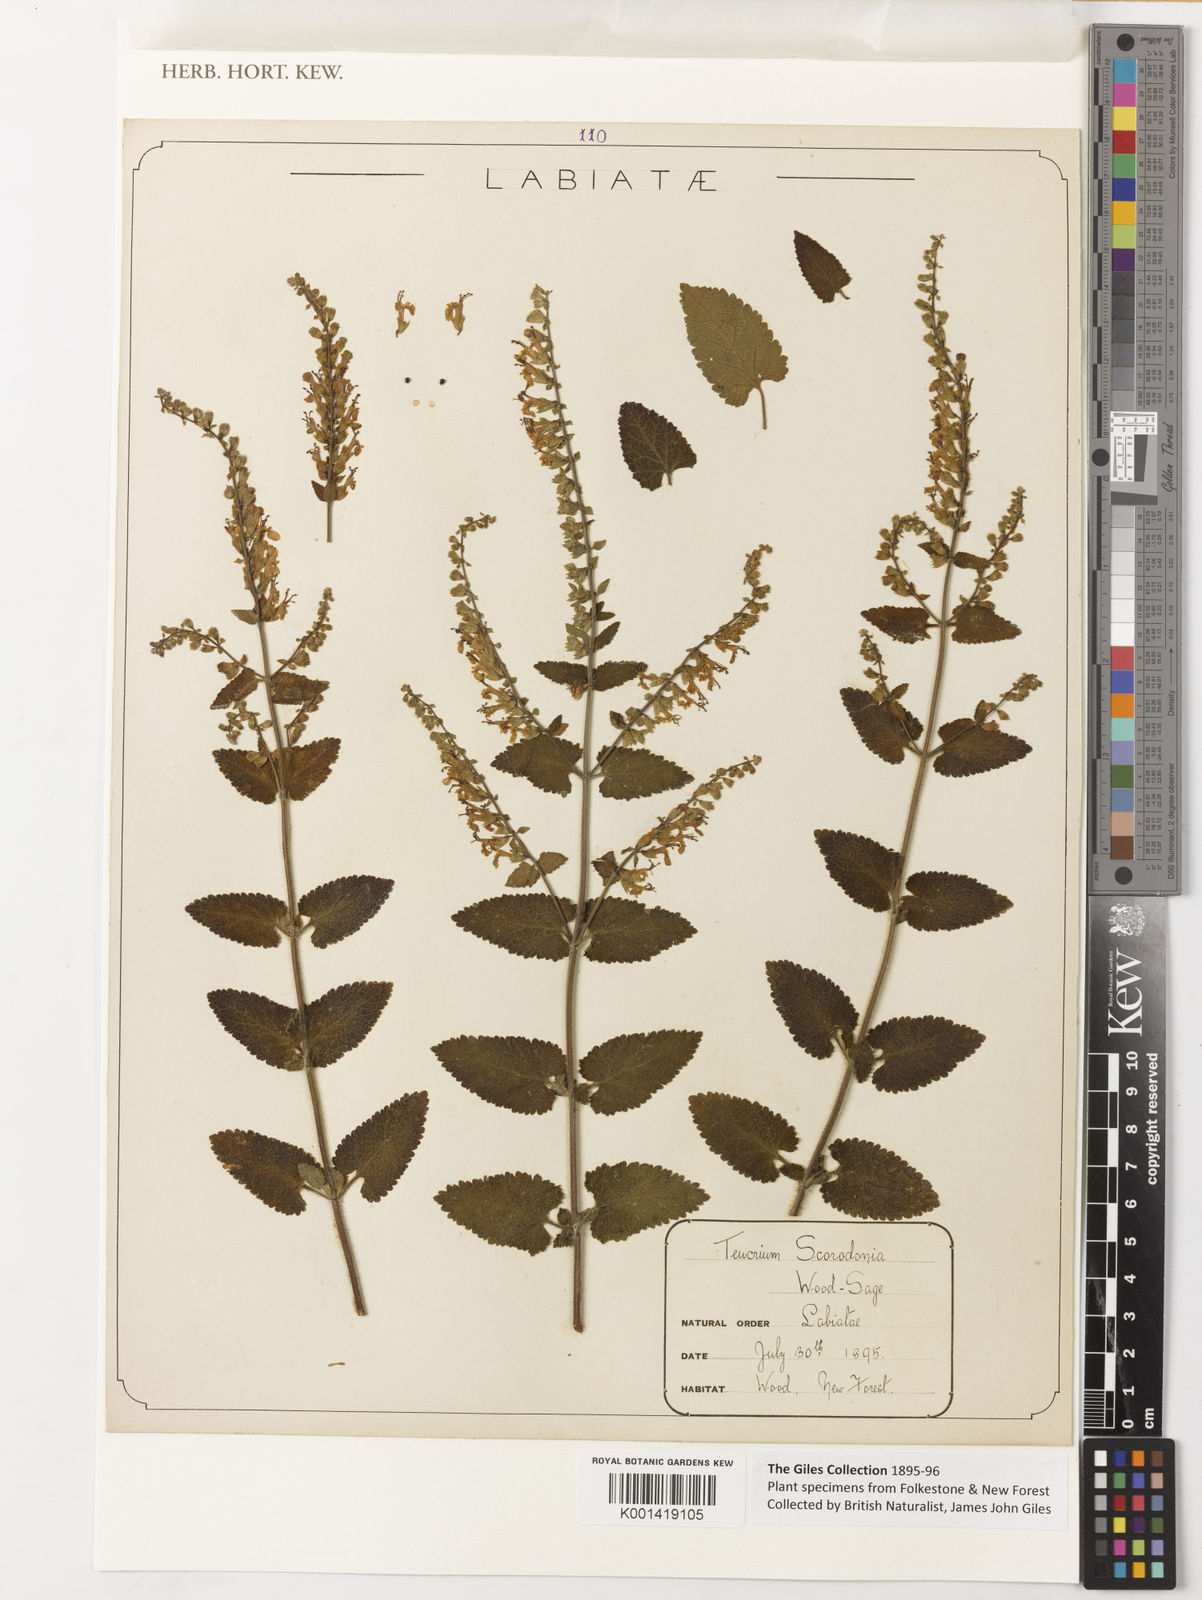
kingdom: Plantae
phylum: Tracheophyta
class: Magnoliopsida
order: Lamiales
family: Lamiaceae
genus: Teucrium
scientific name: Teucrium scorodonia
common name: Woodland germander
